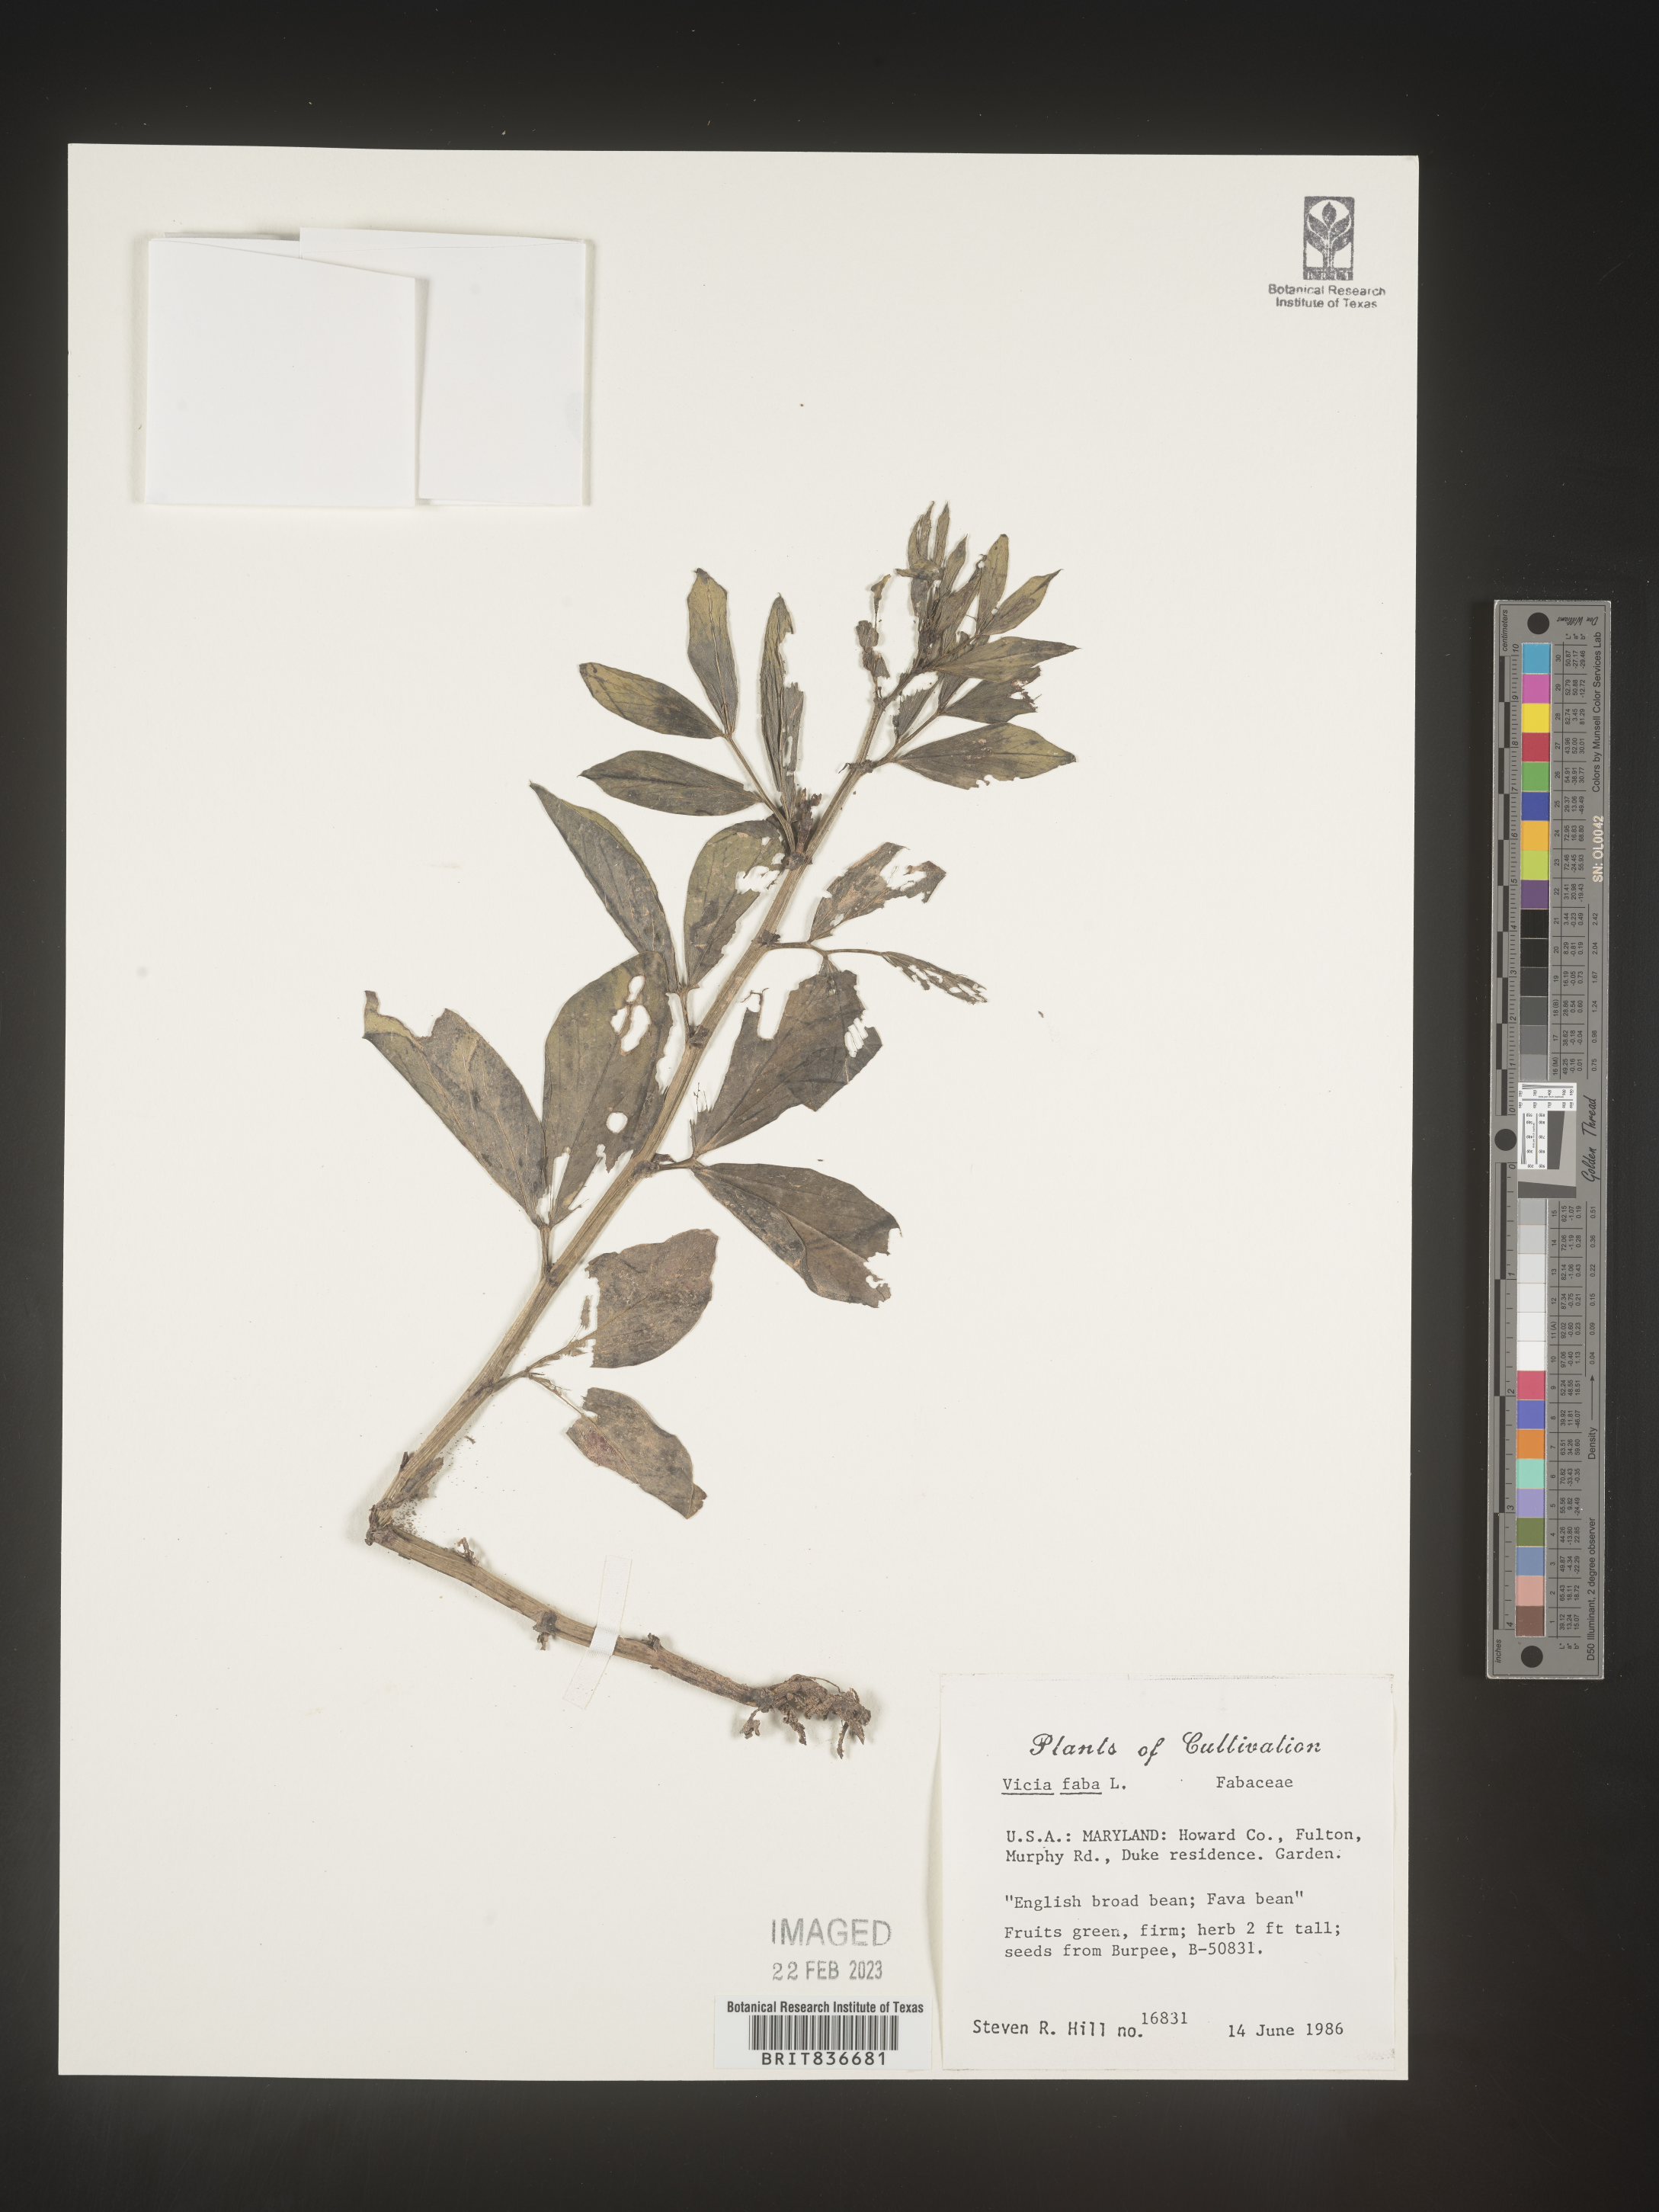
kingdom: Plantae
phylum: Tracheophyta
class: Magnoliopsida
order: Fabales
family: Fabaceae
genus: Vicia
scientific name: Vicia
